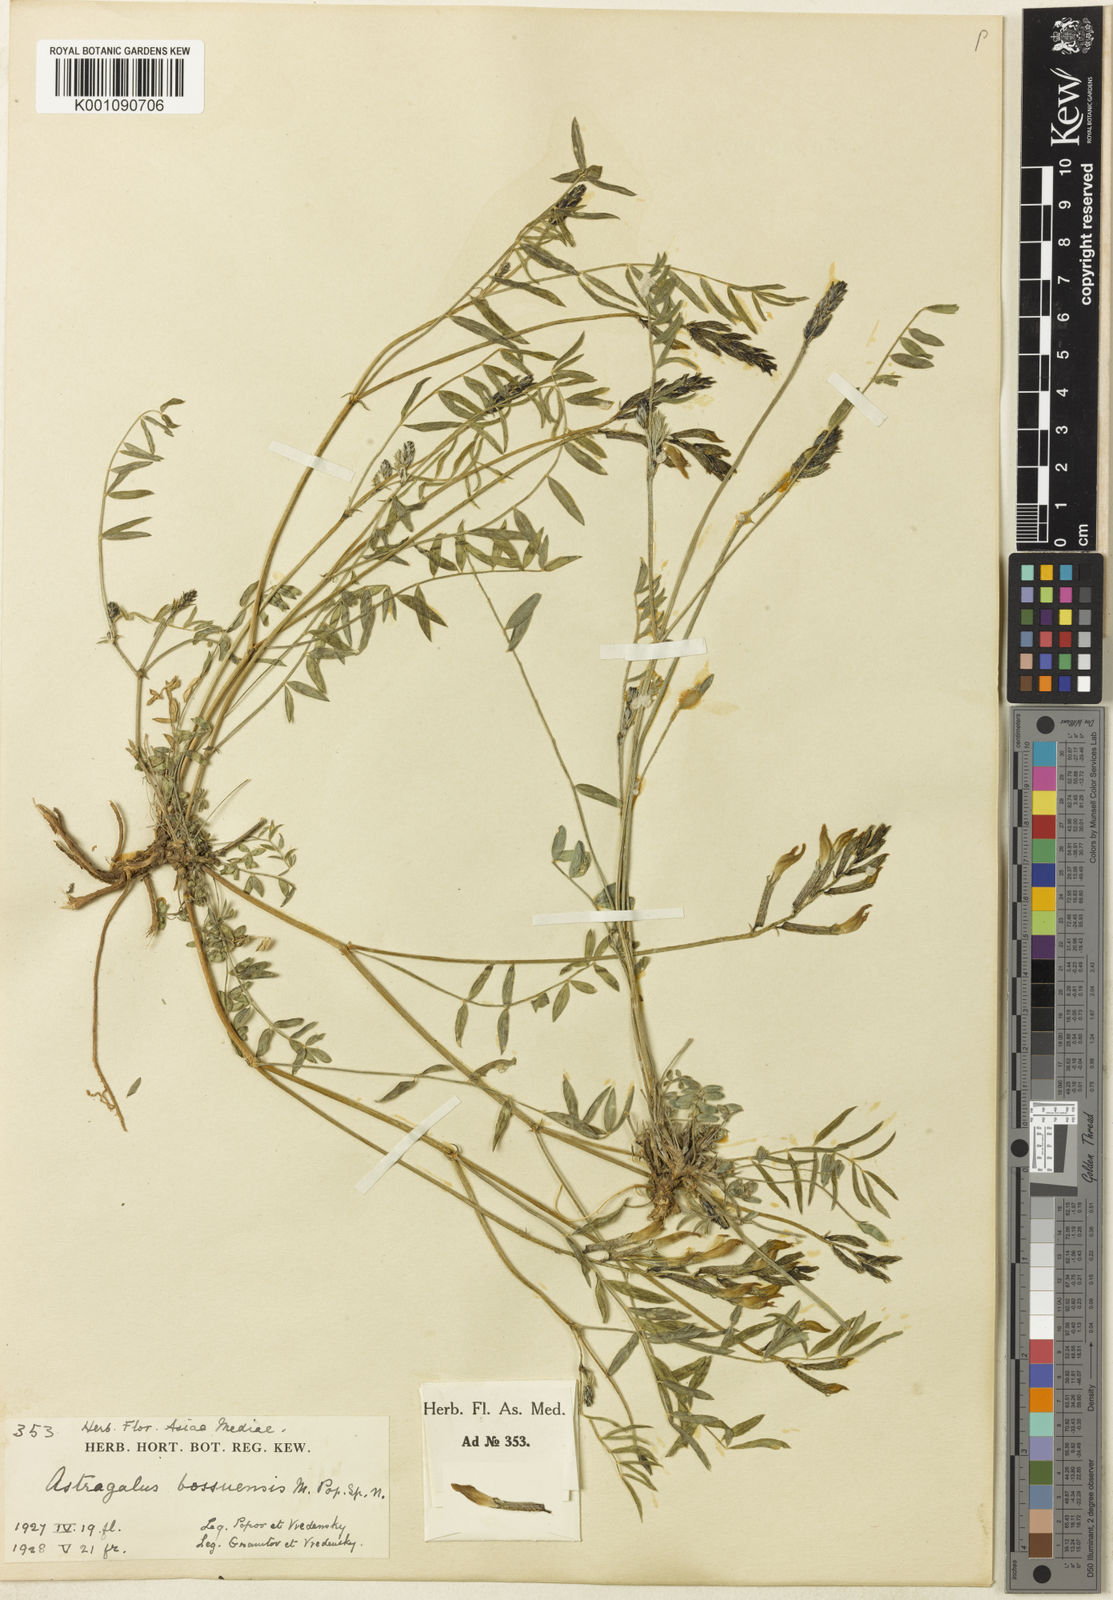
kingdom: Plantae
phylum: Tracheophyta
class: Magnoliopsida
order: Fabales
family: Fabaceae
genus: Astragalus
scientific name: Astragalus
